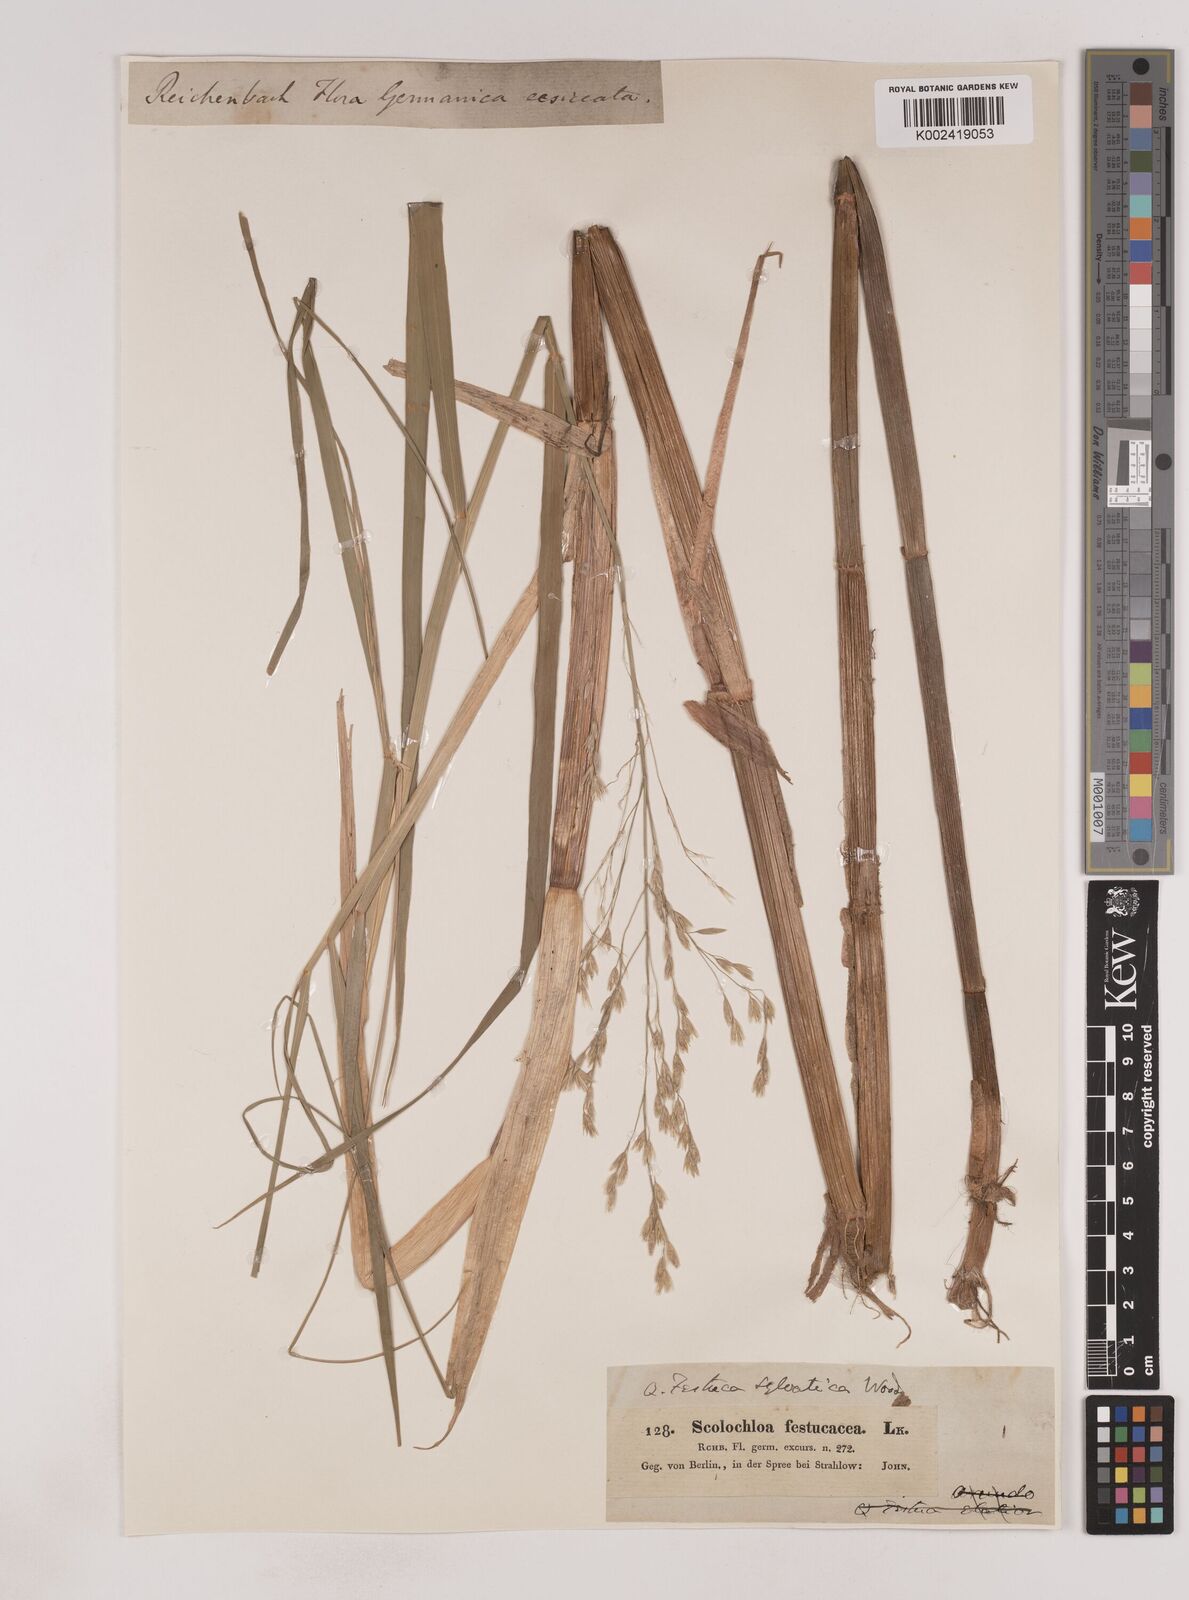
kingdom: Plantae
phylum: Tracheophyta
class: Liliopsida
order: Poales
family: Poaceae
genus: Festuca
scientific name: Festuca drymeja
